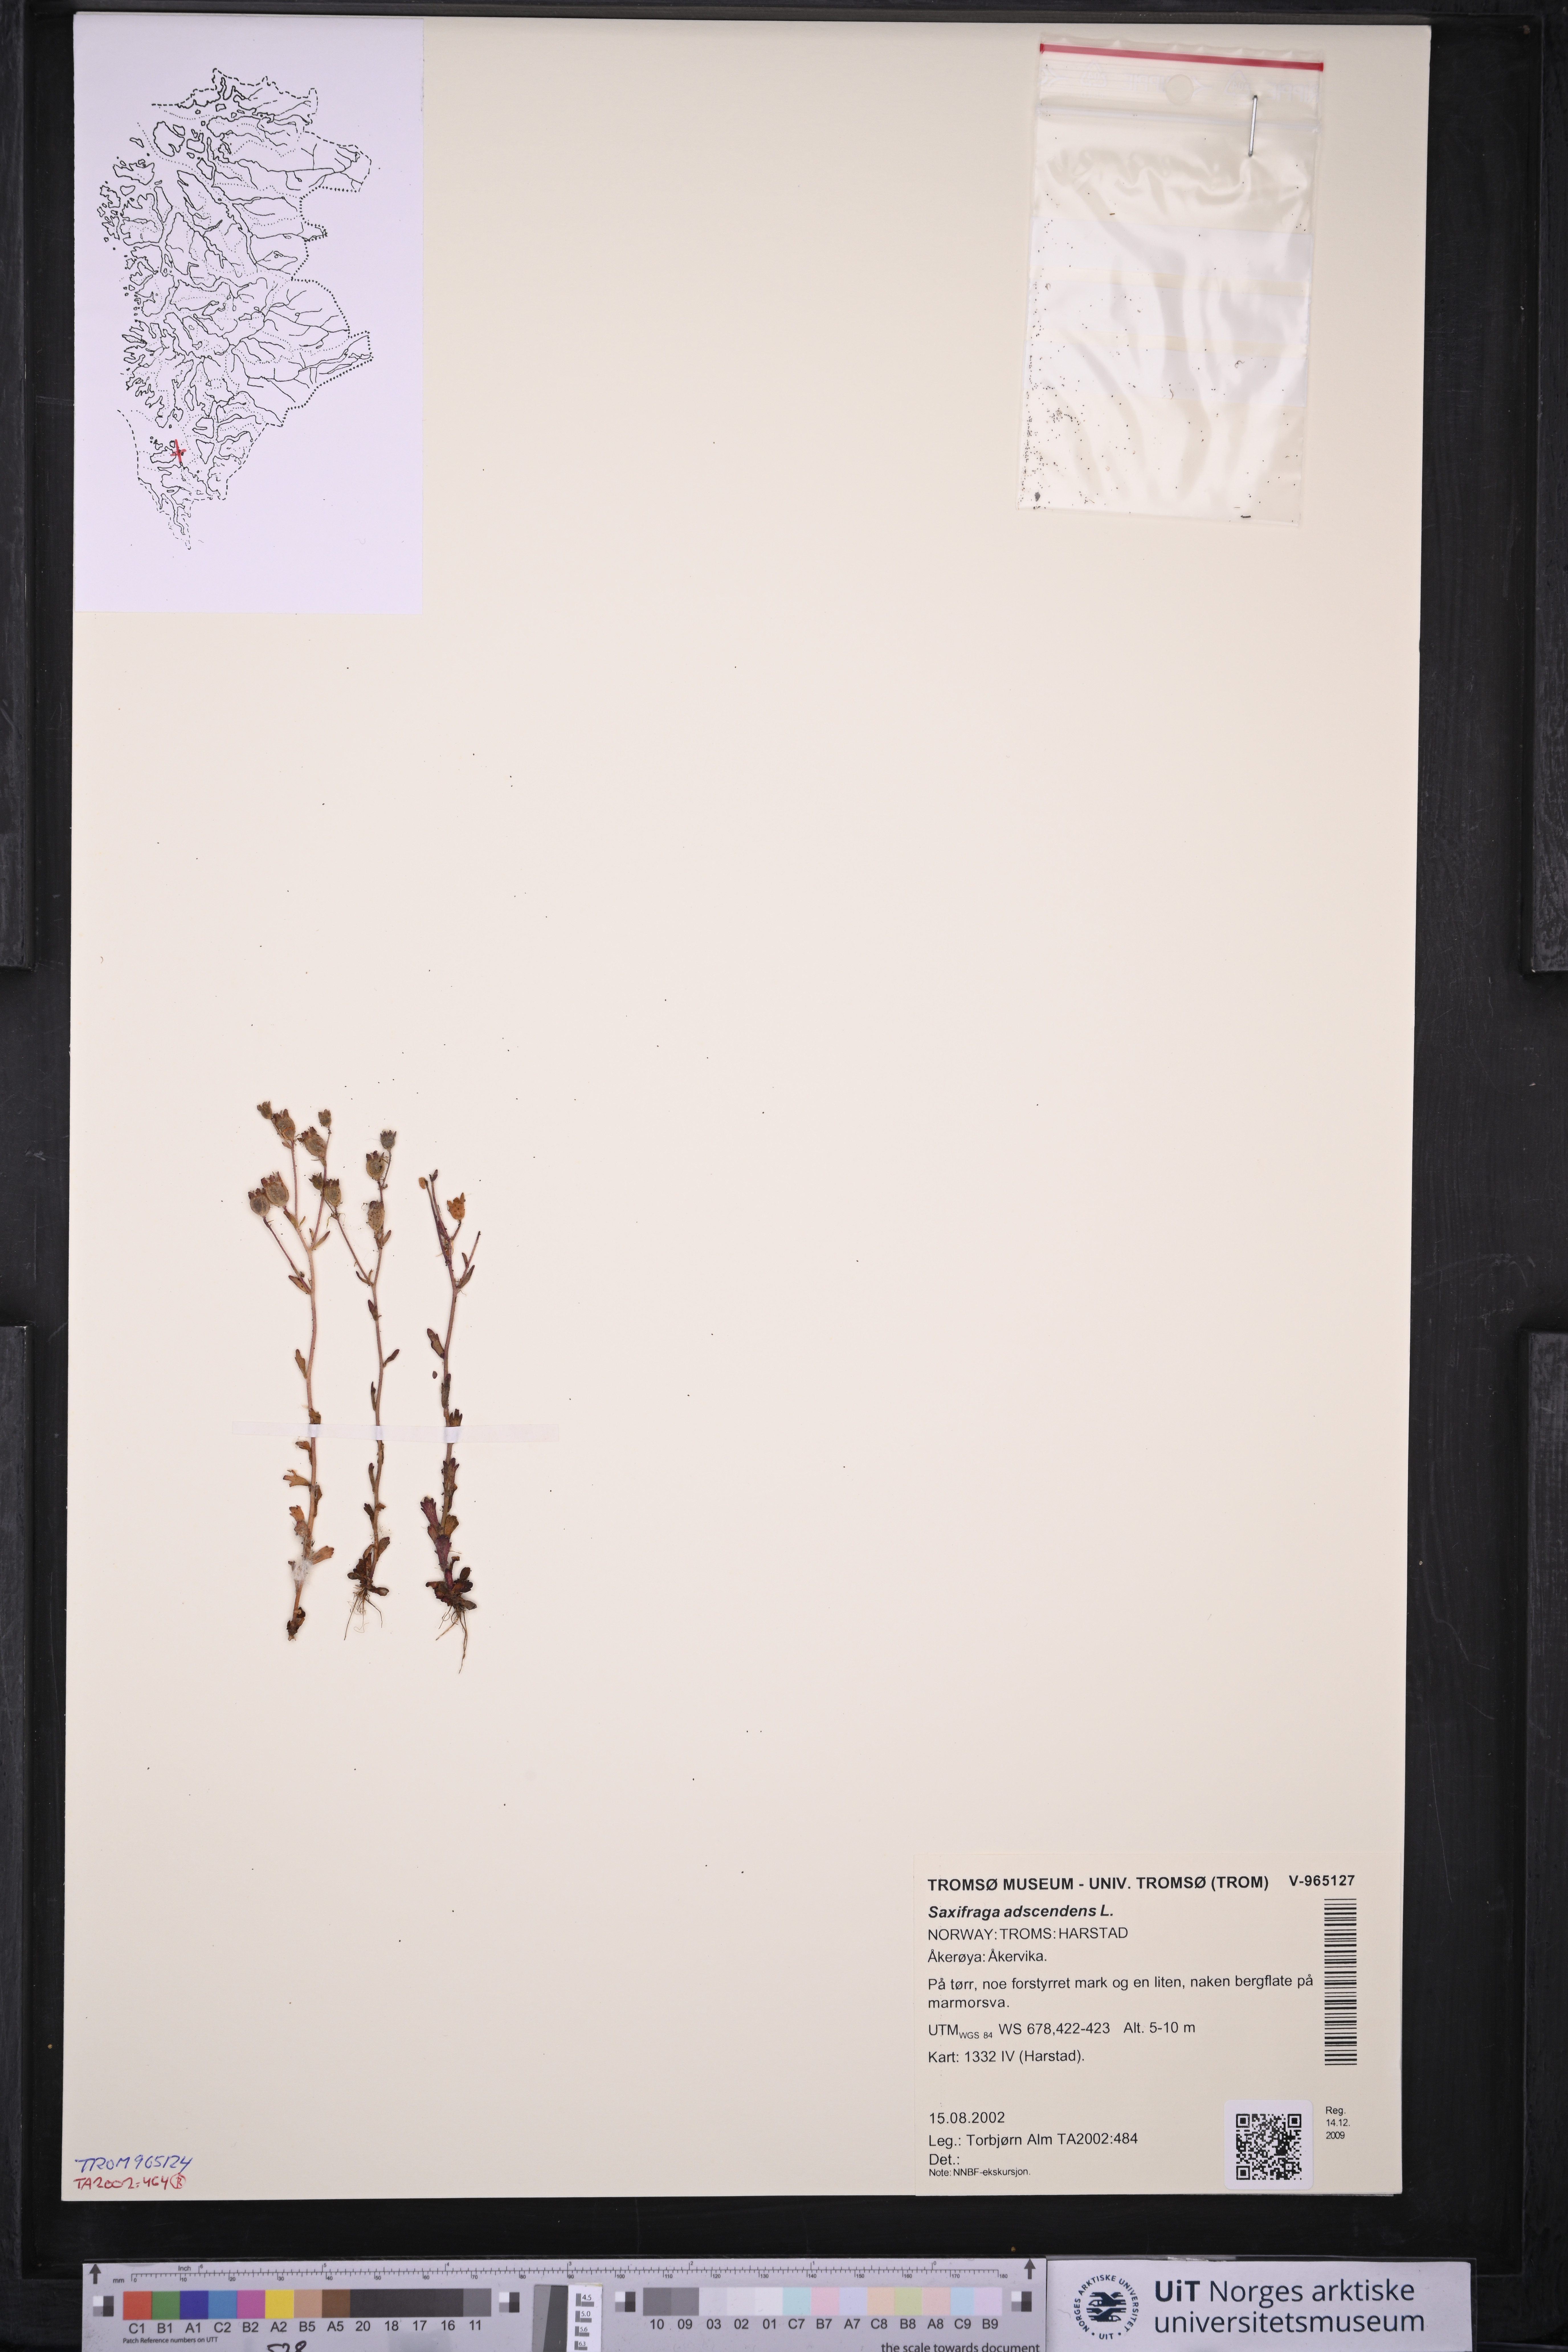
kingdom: Plantae
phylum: Tracheophyta
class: Magnoliopsida
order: Saxifragales
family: Saxifragaceae
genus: Saxifraga
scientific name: Saxifraga adscendens
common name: Ascending saxifrage
